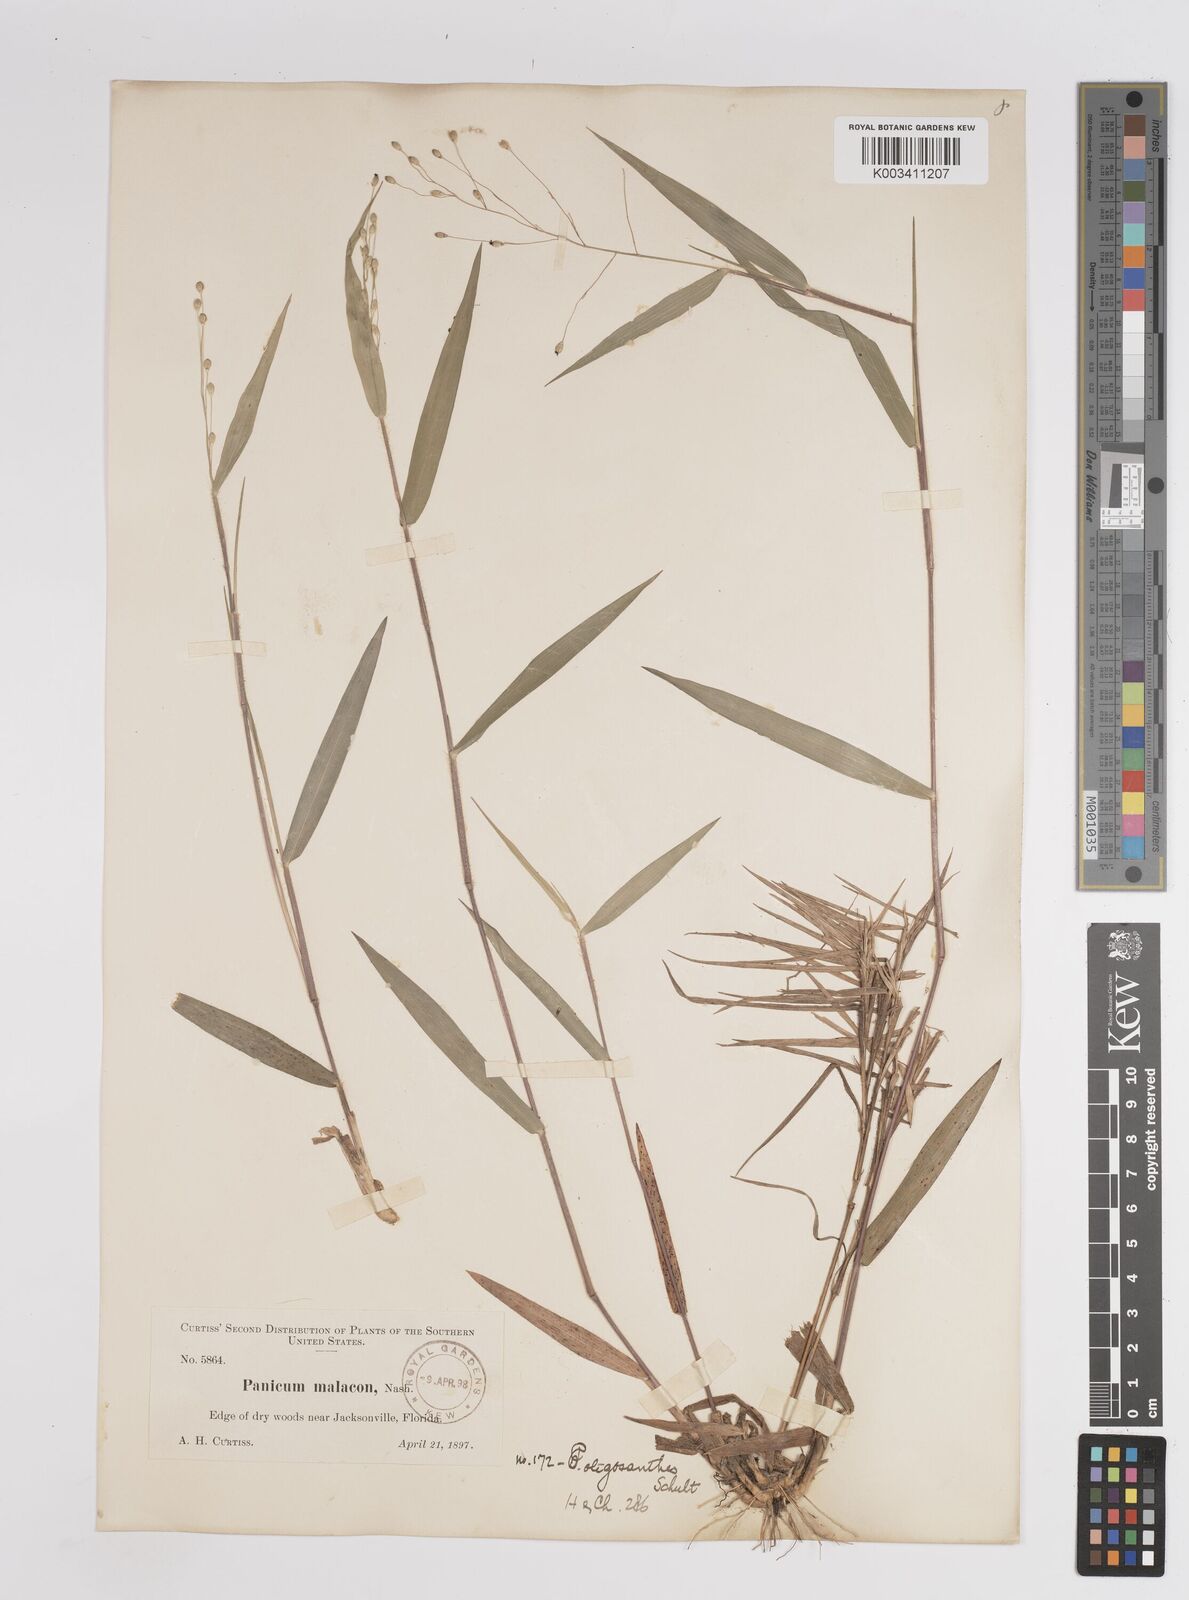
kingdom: Plantae
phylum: Tracheophyta
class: Liliopsida
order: Poales
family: Poaceae
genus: Dichanthelium
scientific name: Dichanthelium oligosanthes
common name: Few-anther obscuregrass
